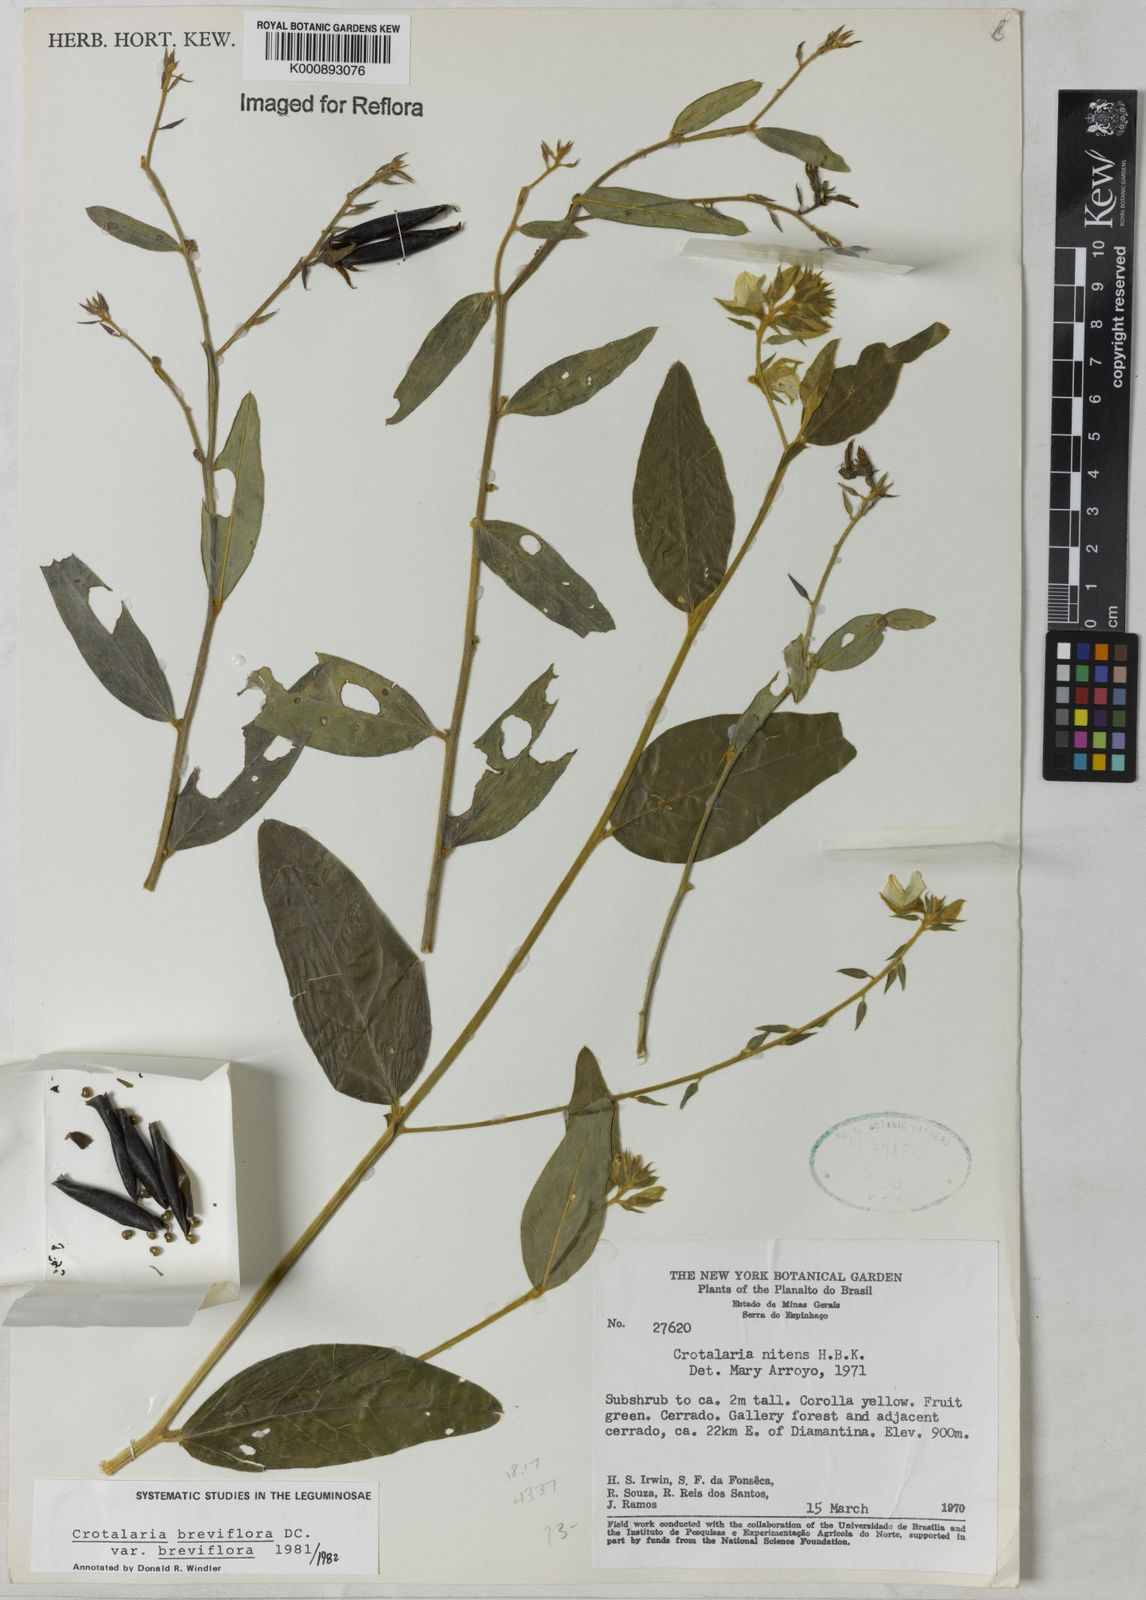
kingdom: Plantae
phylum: Tracheophyta
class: Magnoliopsida
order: Fabales
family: Fabaceae
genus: Crotalaria
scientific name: Crotalaria breviflora
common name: Short-flower crotalaria
